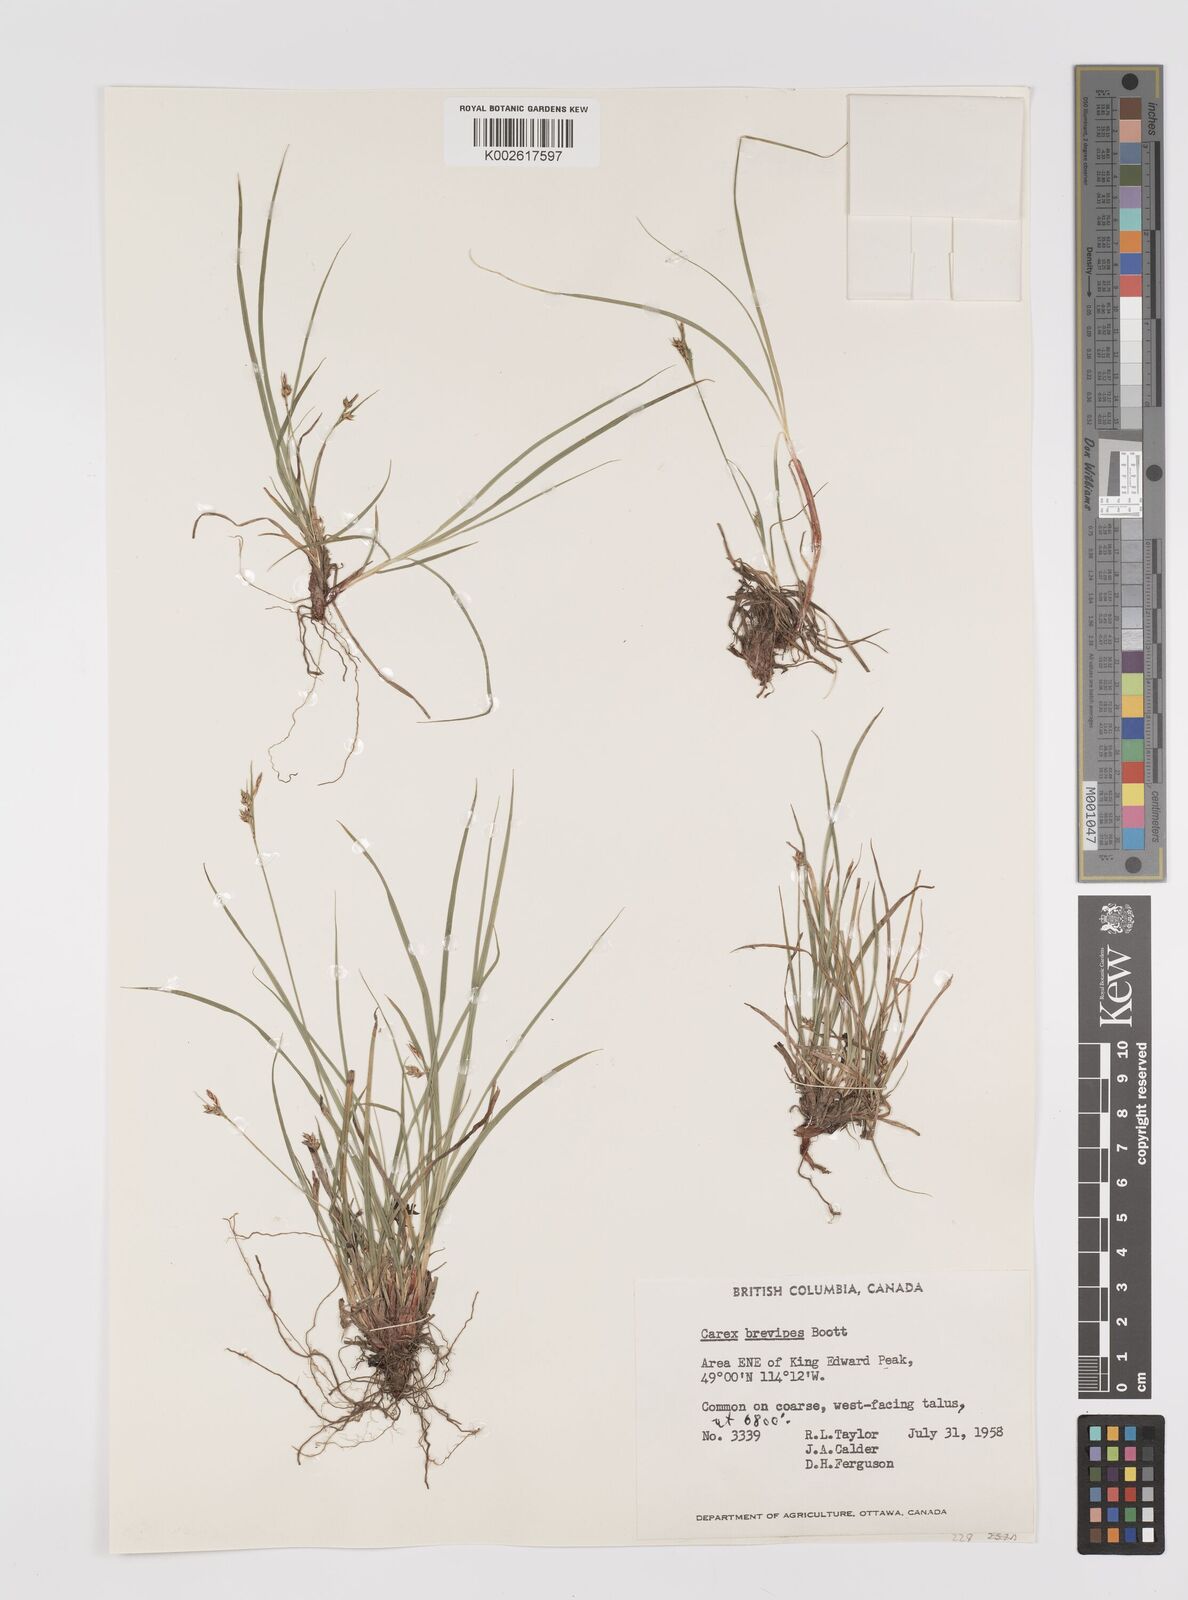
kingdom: Plantae
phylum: Tracheophyta
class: Liliopsida
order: Poales
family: Cyperaceae
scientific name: Cyperaceae
